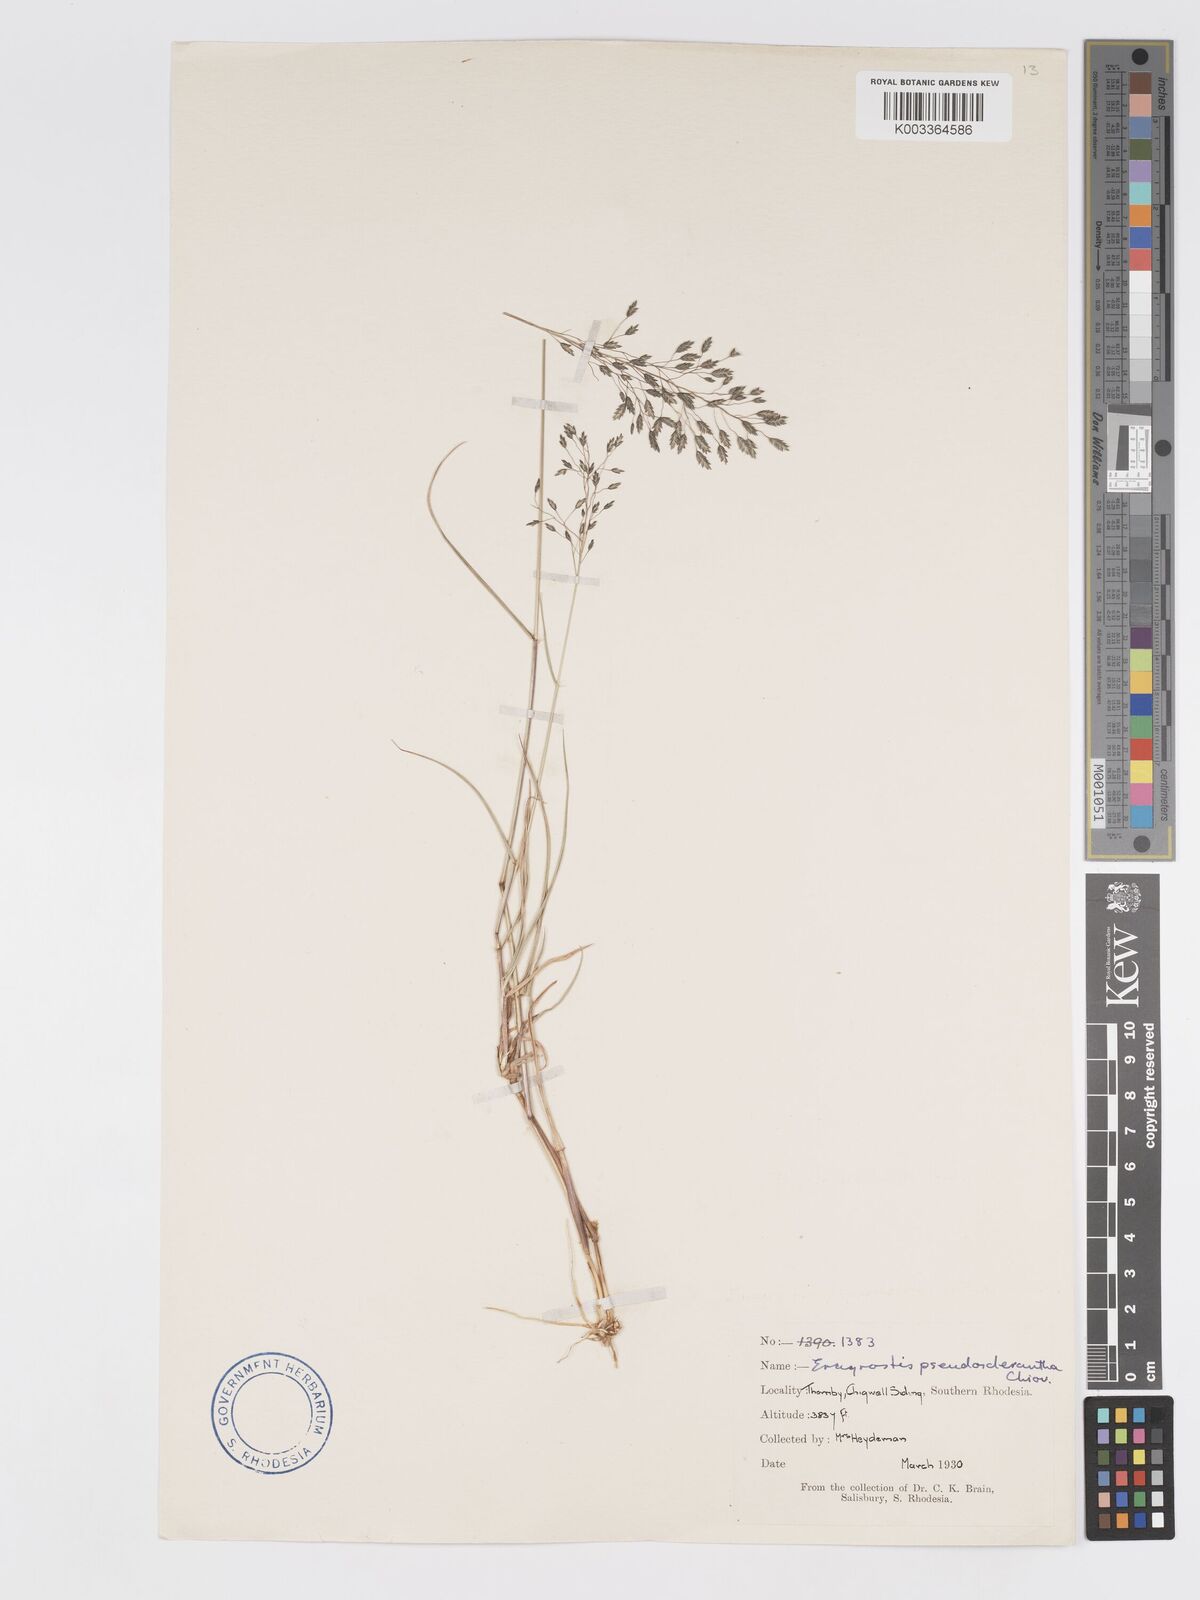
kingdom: Plantae
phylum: Tracheophyta
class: Liliopsida
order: Poales
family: Poaceae
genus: Eragrostis
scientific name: Eragrostis patentipilosa
